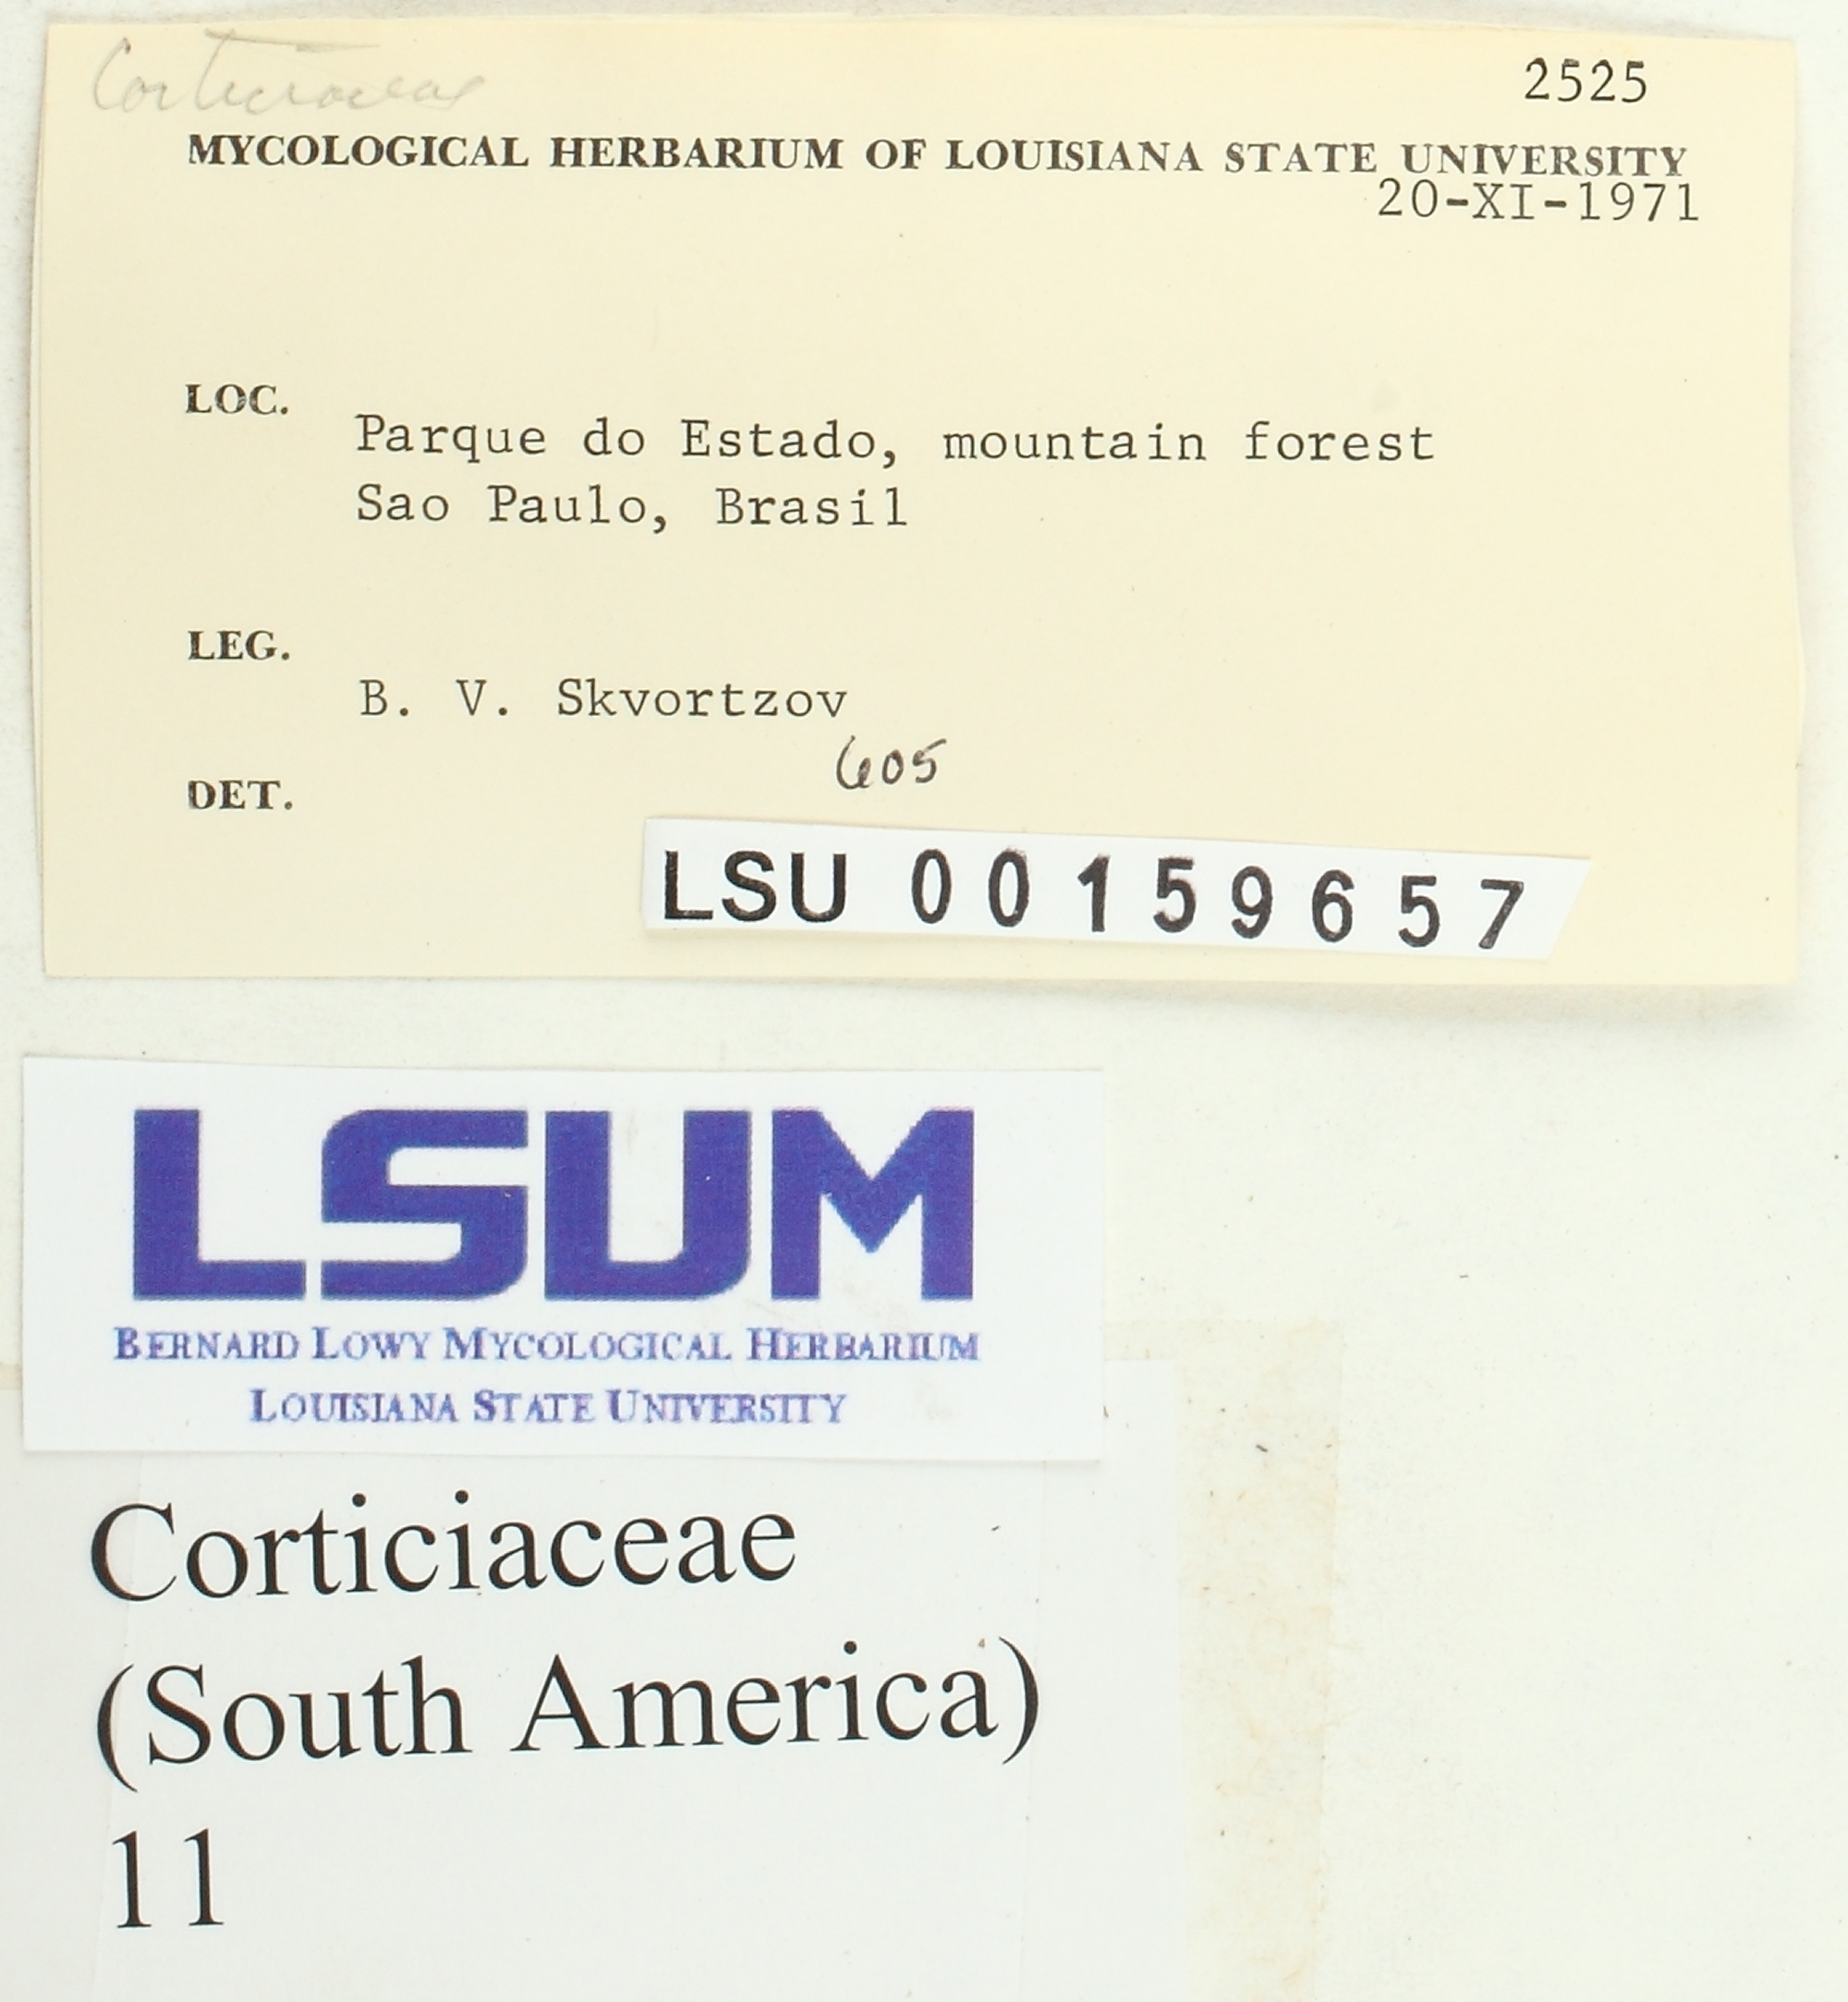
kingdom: Fungi
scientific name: Fungi
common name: Fungi
